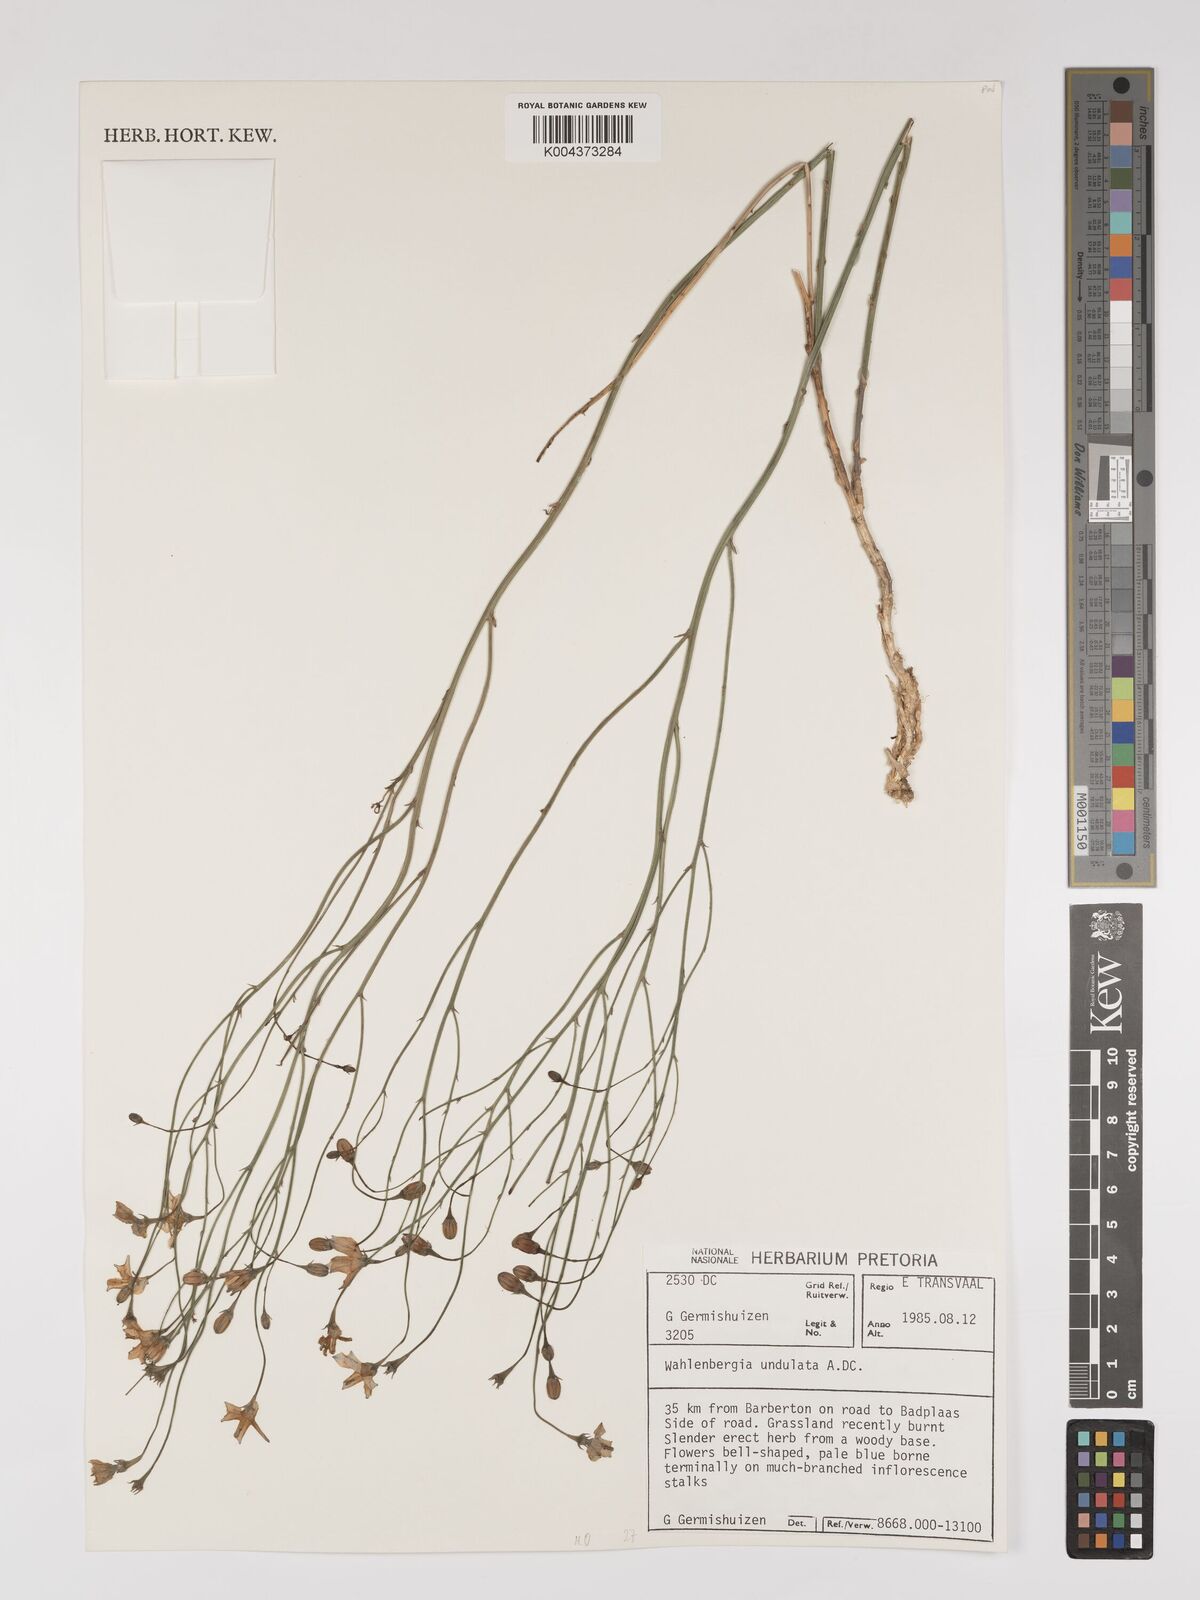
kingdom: Plantae
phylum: Tracheophyta
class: Magnoliopsida
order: Asterales
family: Campanulaceae
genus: Wahlenbergia
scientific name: Wahlenbergia undulata
